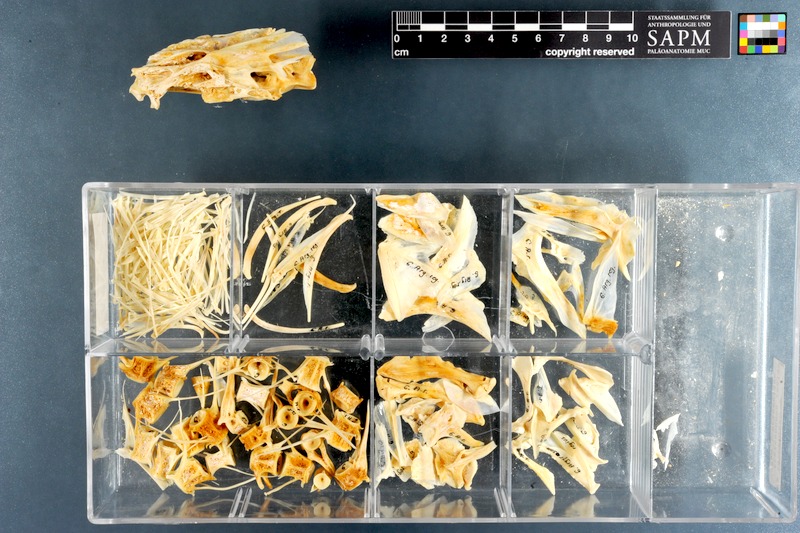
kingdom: Animalia
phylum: Chordata
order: Perciformes
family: Sciaenidae
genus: Argyrosomus
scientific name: Argyrosomus regius
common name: Meagre
